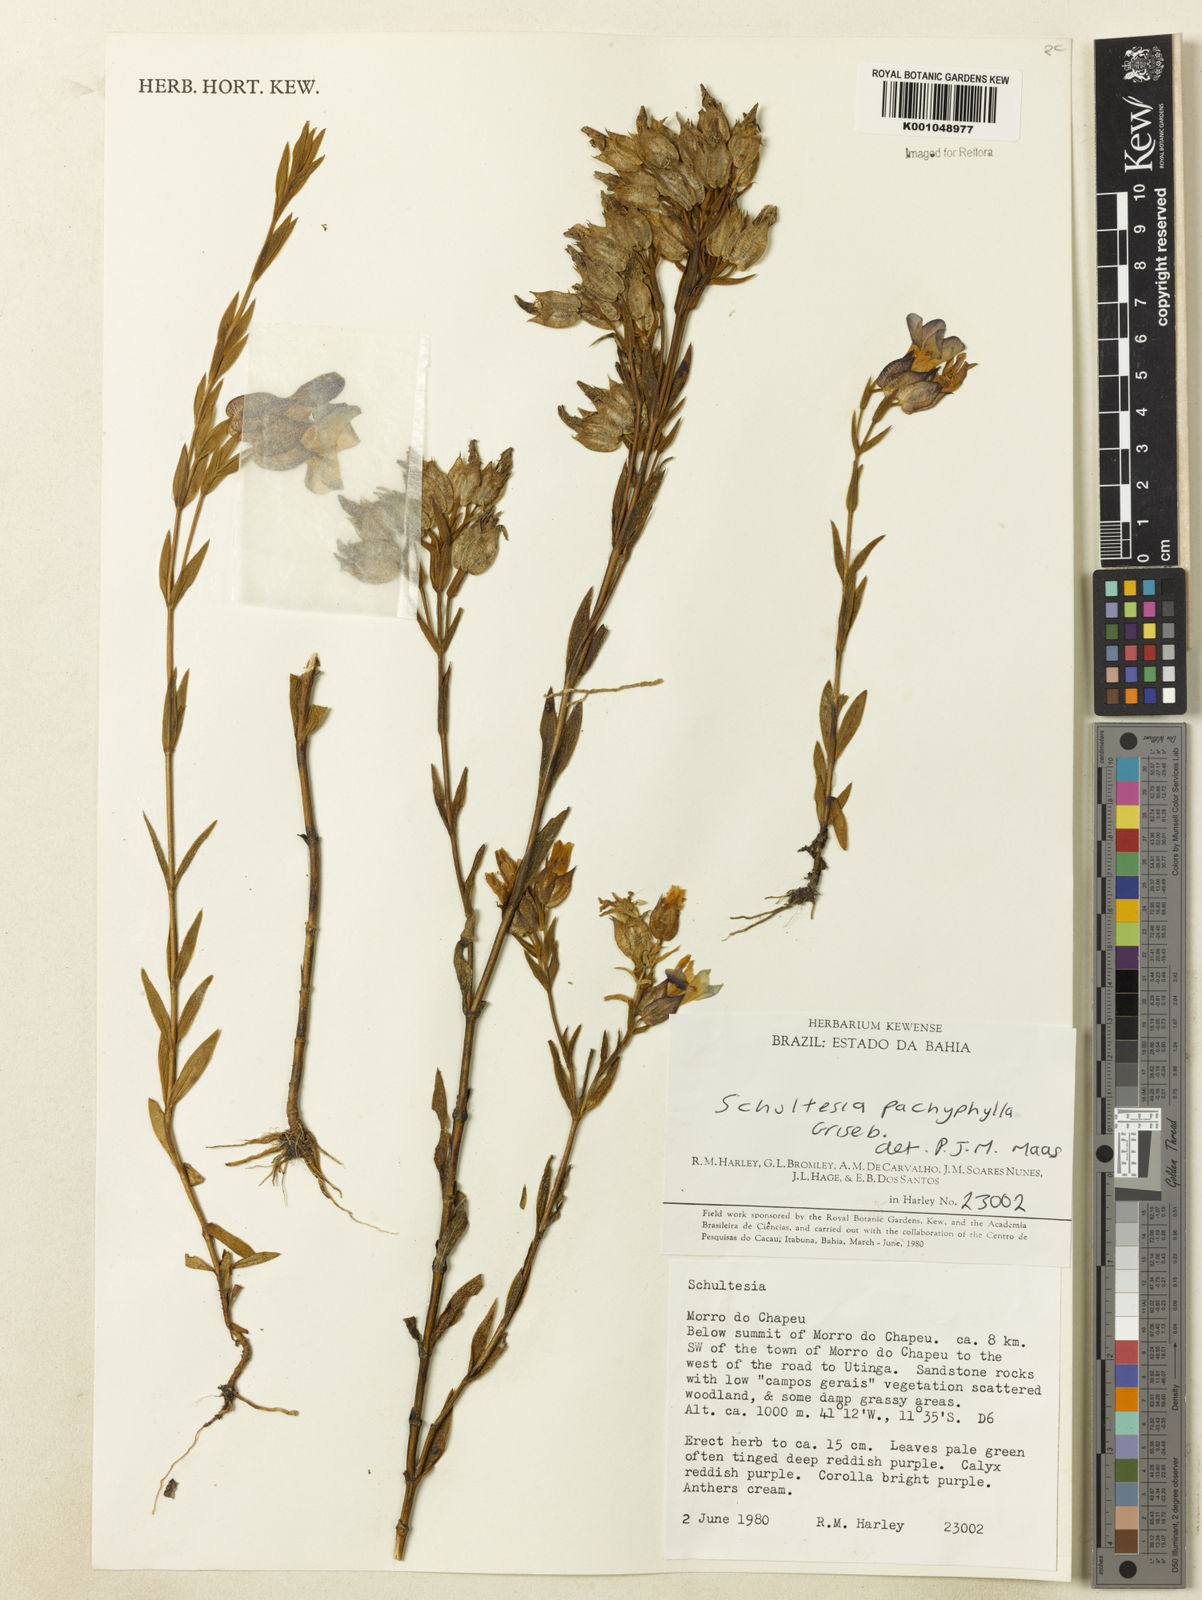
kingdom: Plantae
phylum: Tracheophyta
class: Magnoliopsida
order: Gentianales
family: Gentianaceae
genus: Schultesia
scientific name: Schultesia pachyphylla
